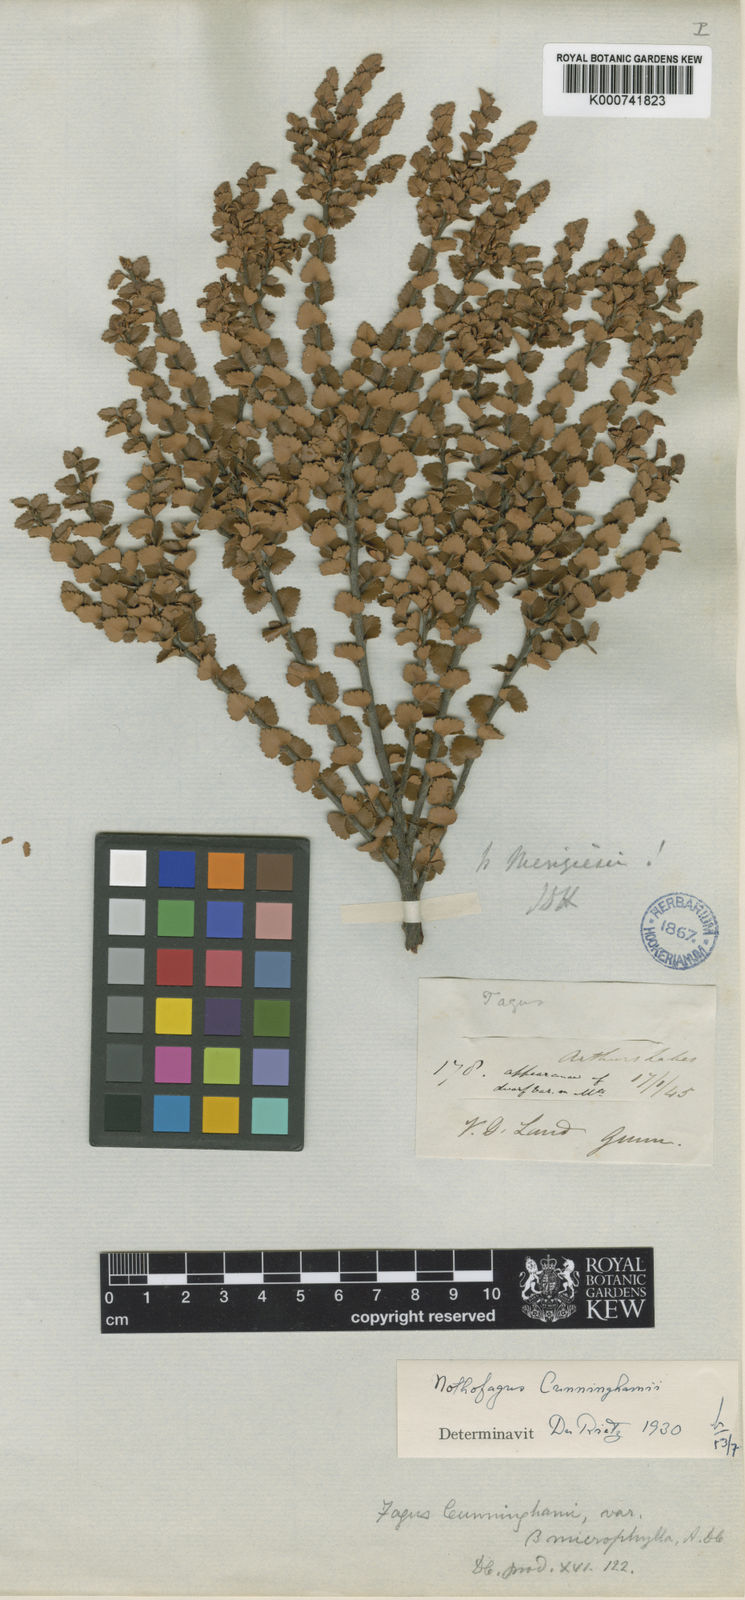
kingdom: Plantae
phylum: Tracheophyta
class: Magnoliopsida
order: Fagales
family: Nothofagaceae
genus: Nothofagus
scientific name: Nothofagus menziesii
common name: Silver beech
